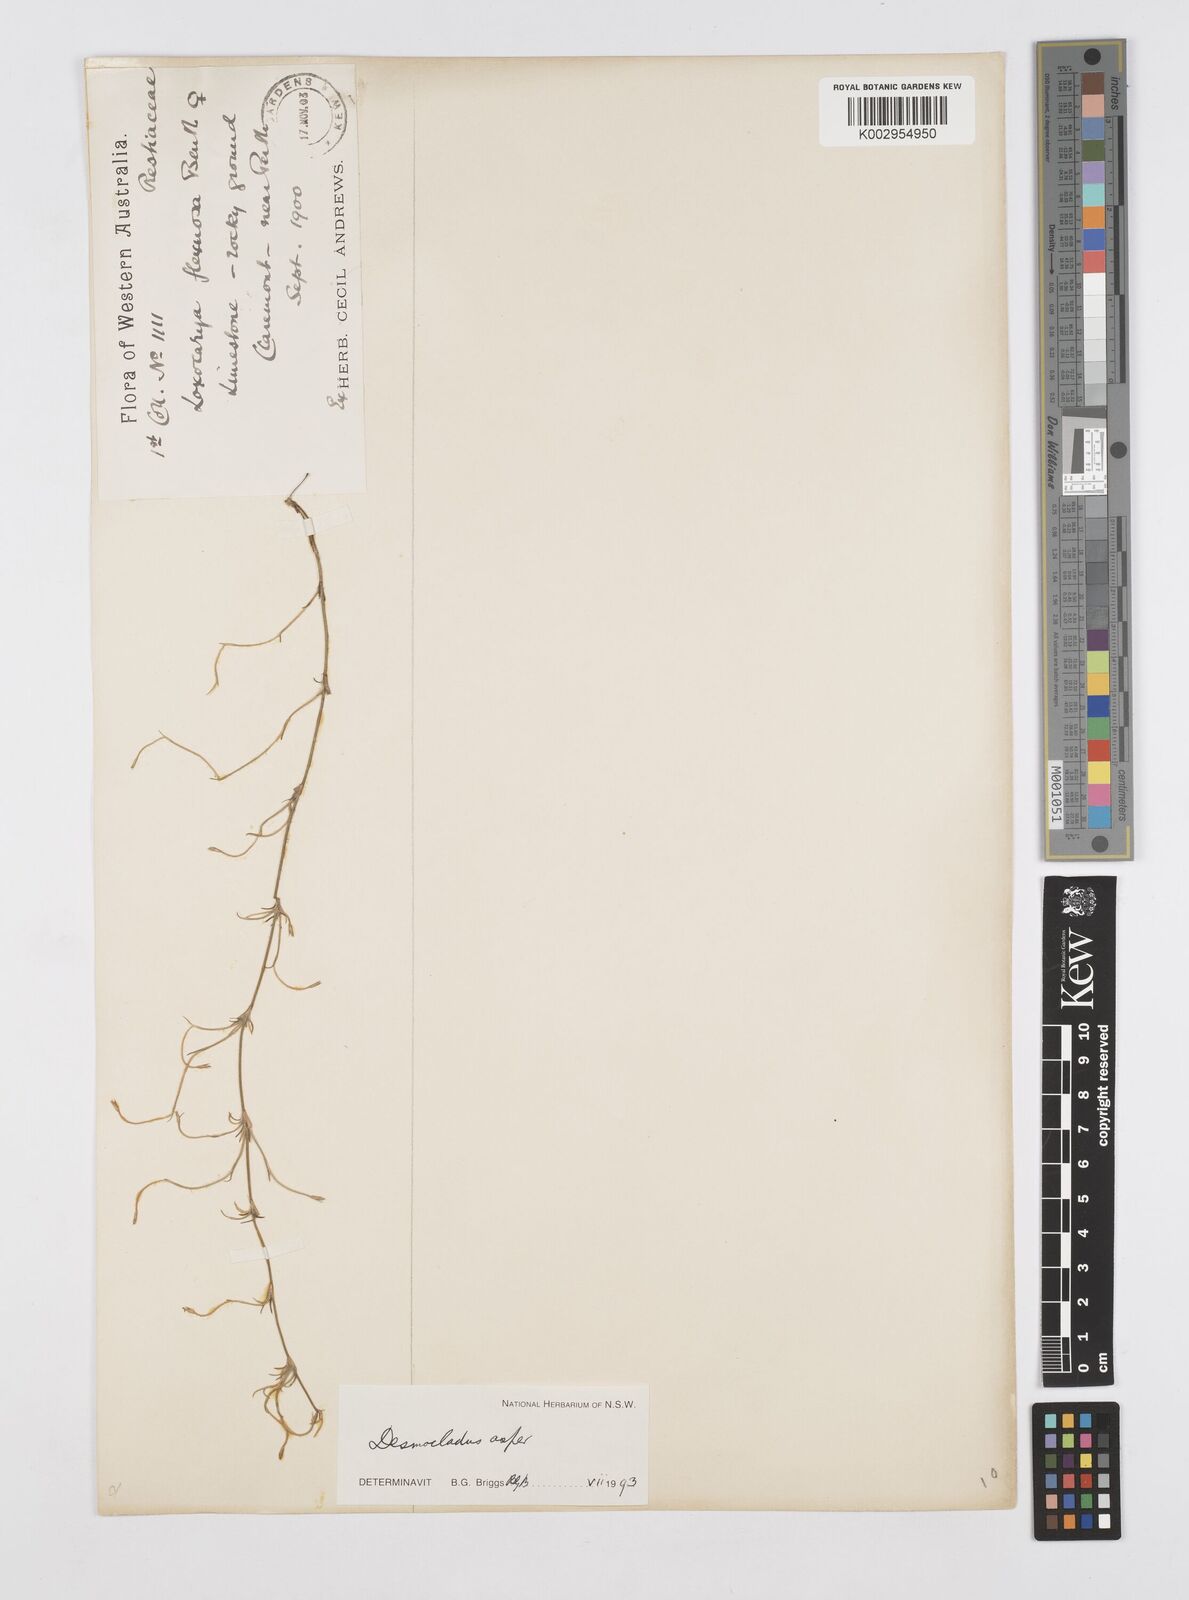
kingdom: Plantae
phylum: Tracheophyta
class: Liliopsida
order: Poales
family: Restionaceae
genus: Desmocladus
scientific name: Desmocladus asper
